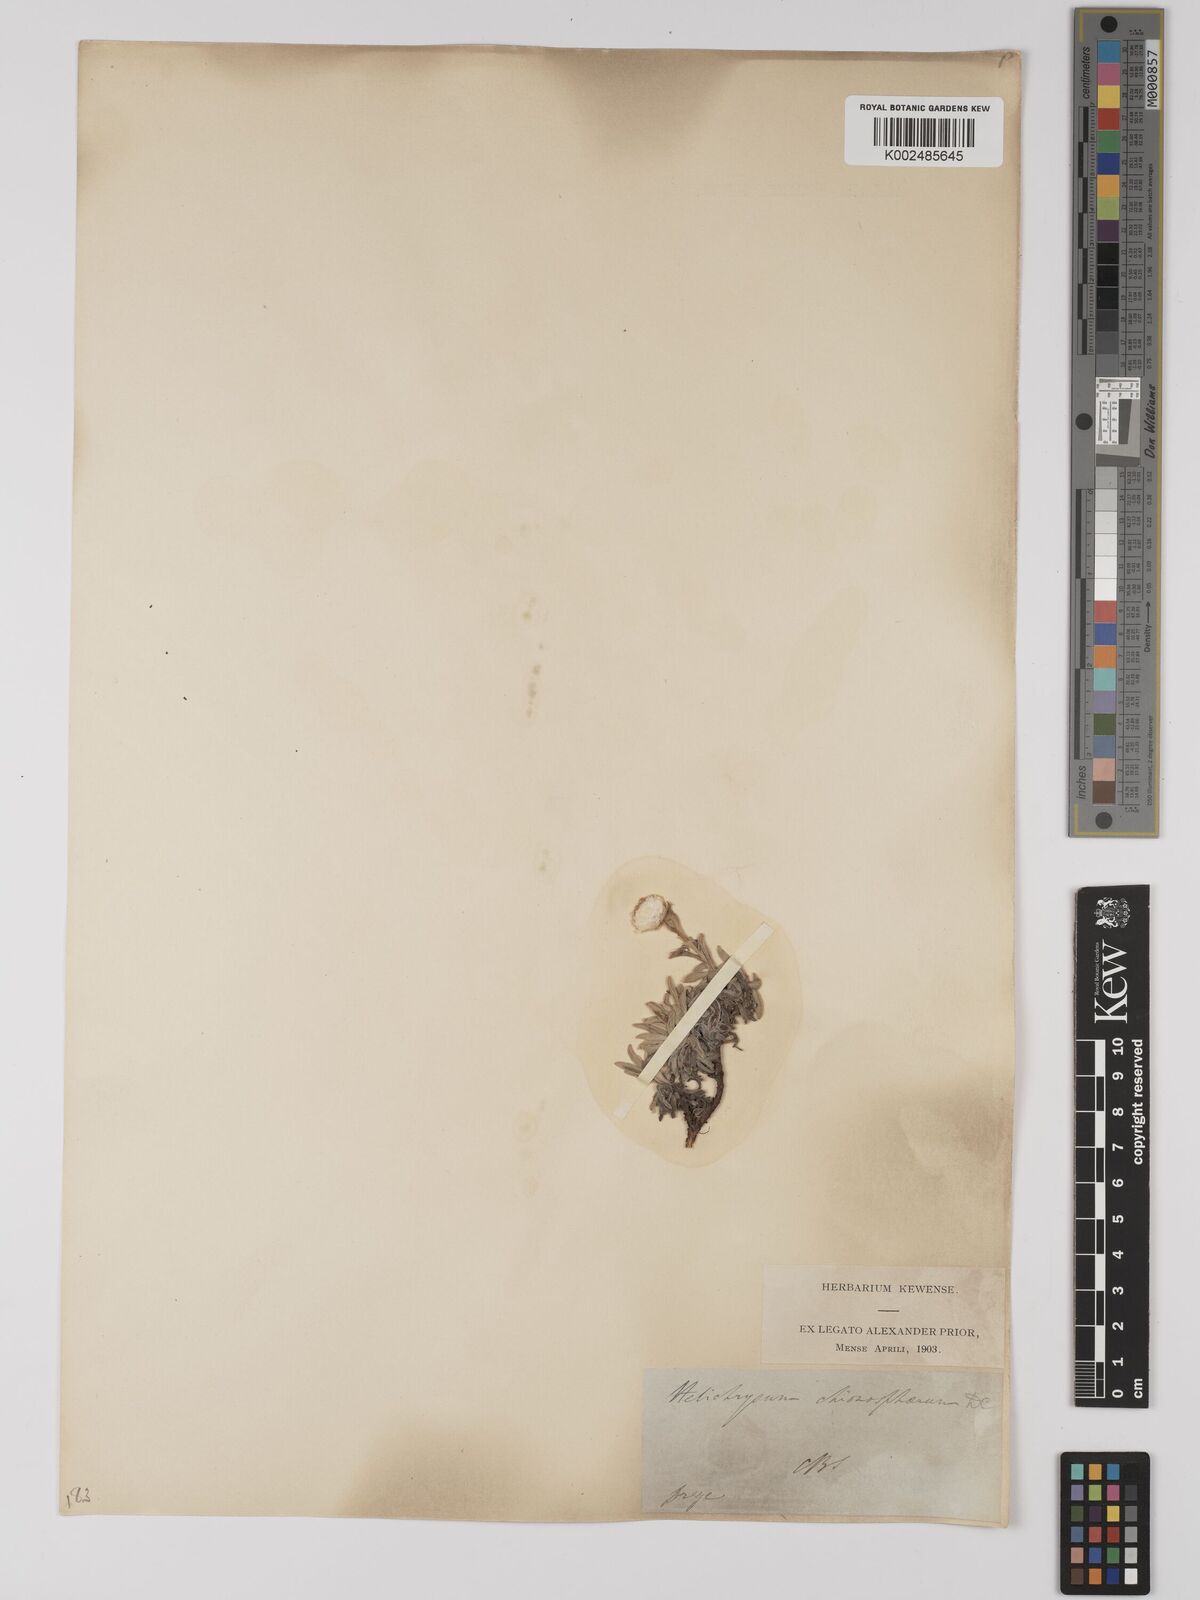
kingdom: Plantae
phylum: Tracheophyta
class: Magnoliopsida
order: Asterales
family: Asteraceae
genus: Helichrysum
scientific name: Helichrysum chionosphaerum
